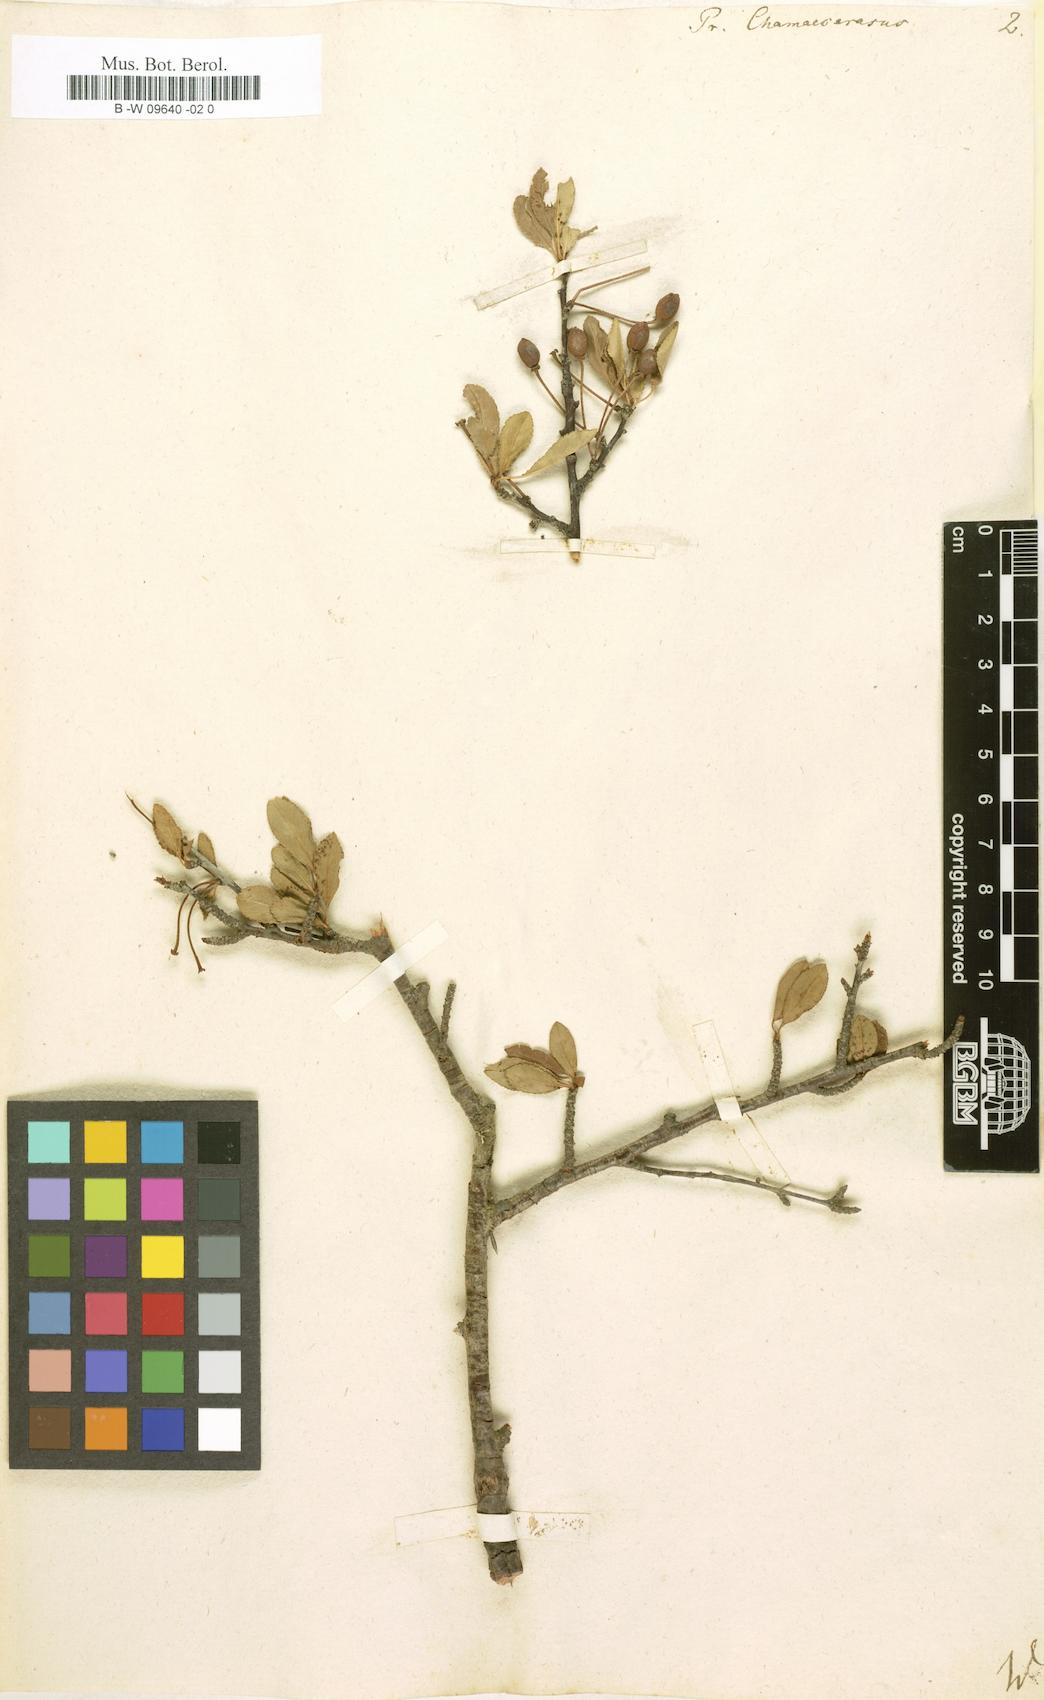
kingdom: Plantae
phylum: Tracheophyta
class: Magnoliopsida
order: Rosales
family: Rosaceae
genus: Prunus
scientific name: Prunus fruticosa
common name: European dwarf cherry
